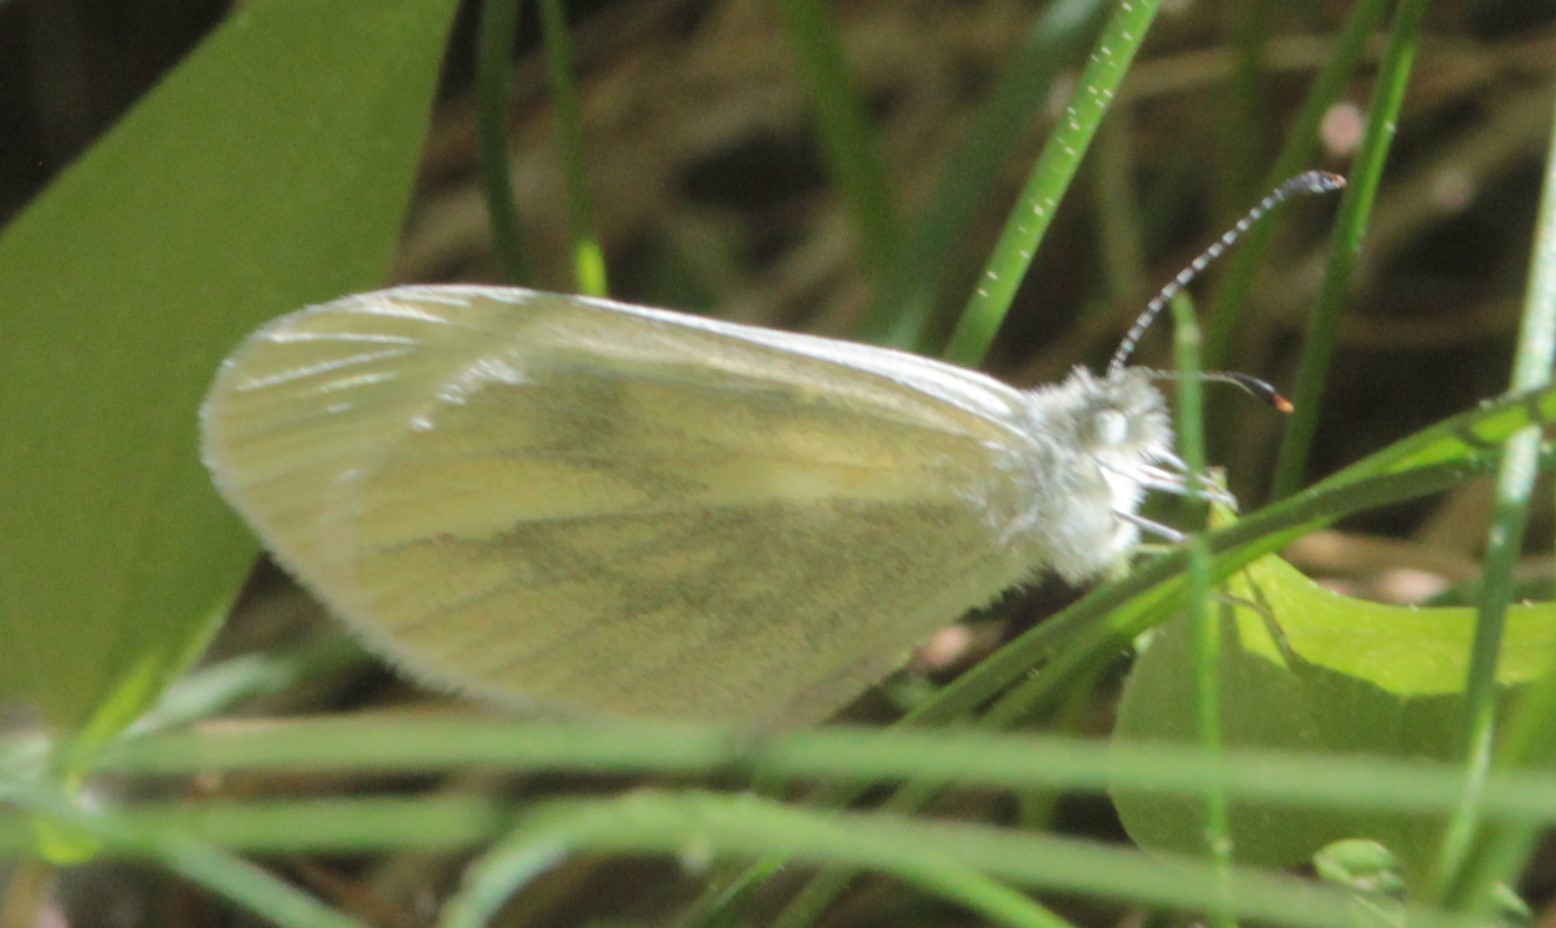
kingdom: Animalia
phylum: Arthropoda
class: Insecta
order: Lepidoptera
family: Pieridae
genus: Leptidea
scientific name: Leptidea sinapis
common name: Wood white
